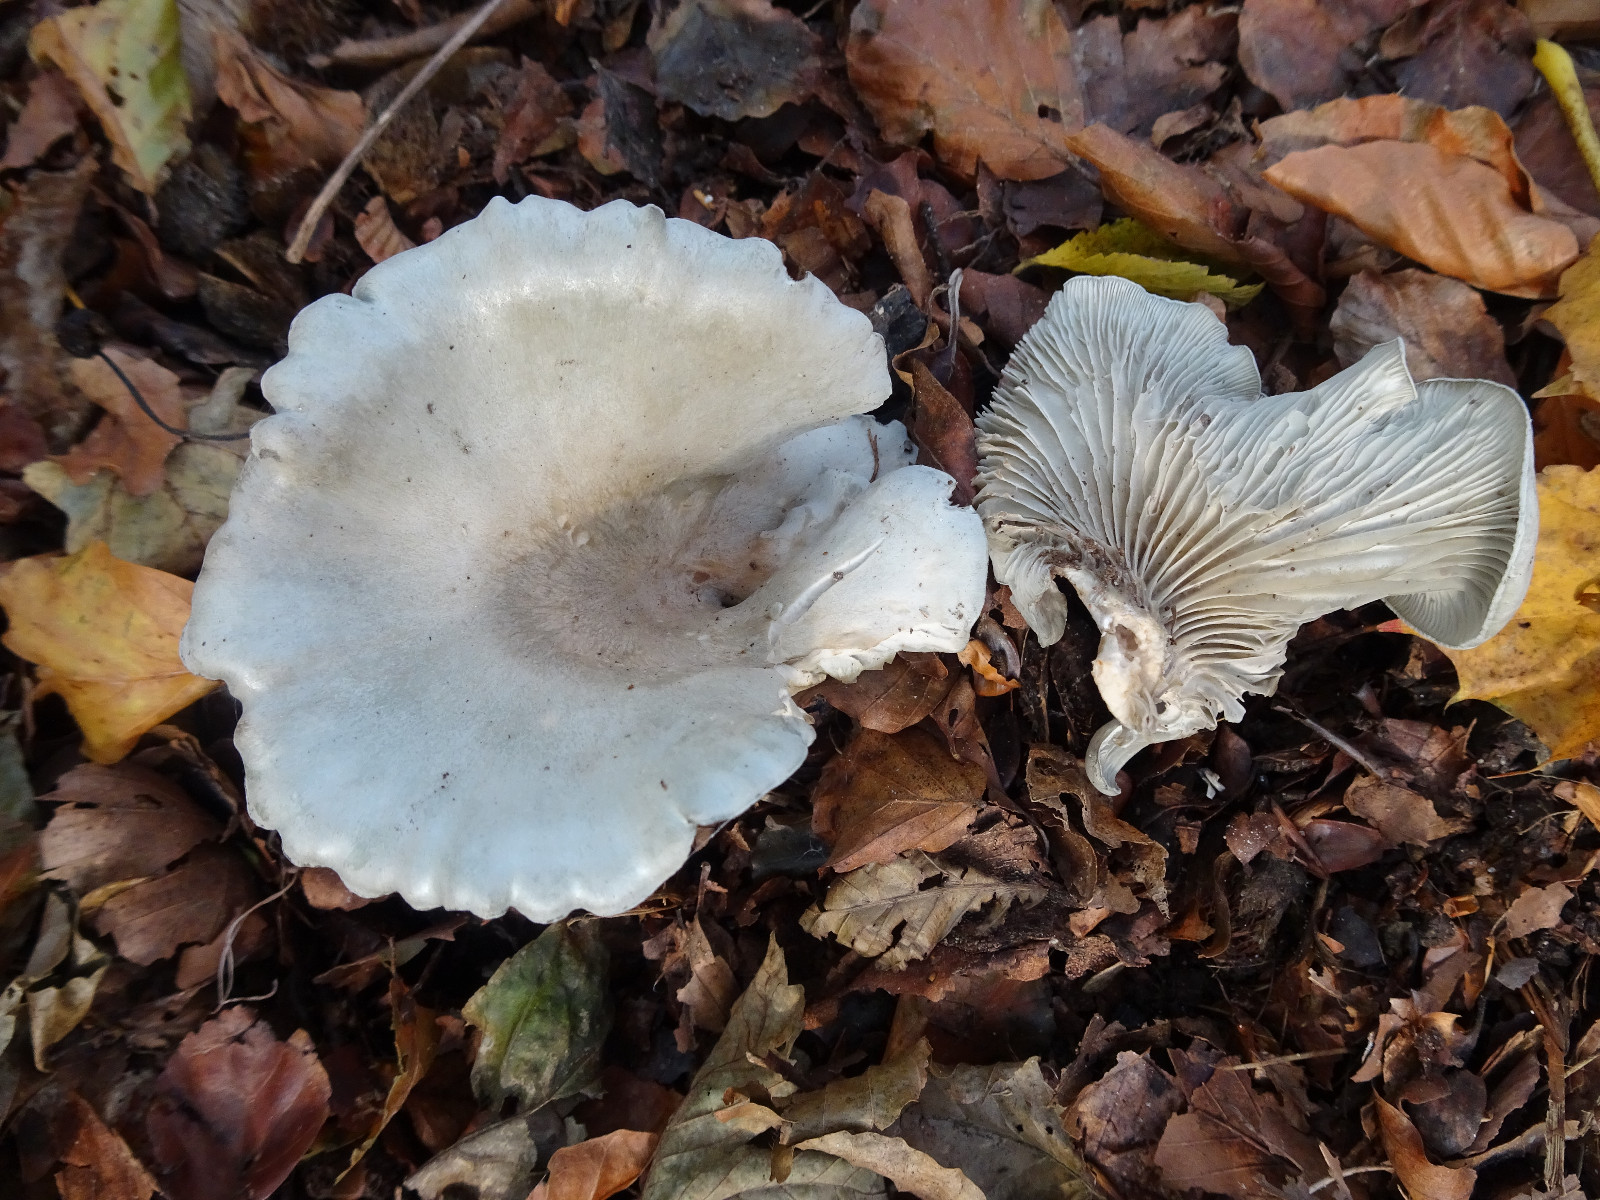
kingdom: Fungi
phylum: Basidiomycota
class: Agaricomycetes
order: Agaricales
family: Tricholomataceae
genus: Clitocybe
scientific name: Clitocybe odora
